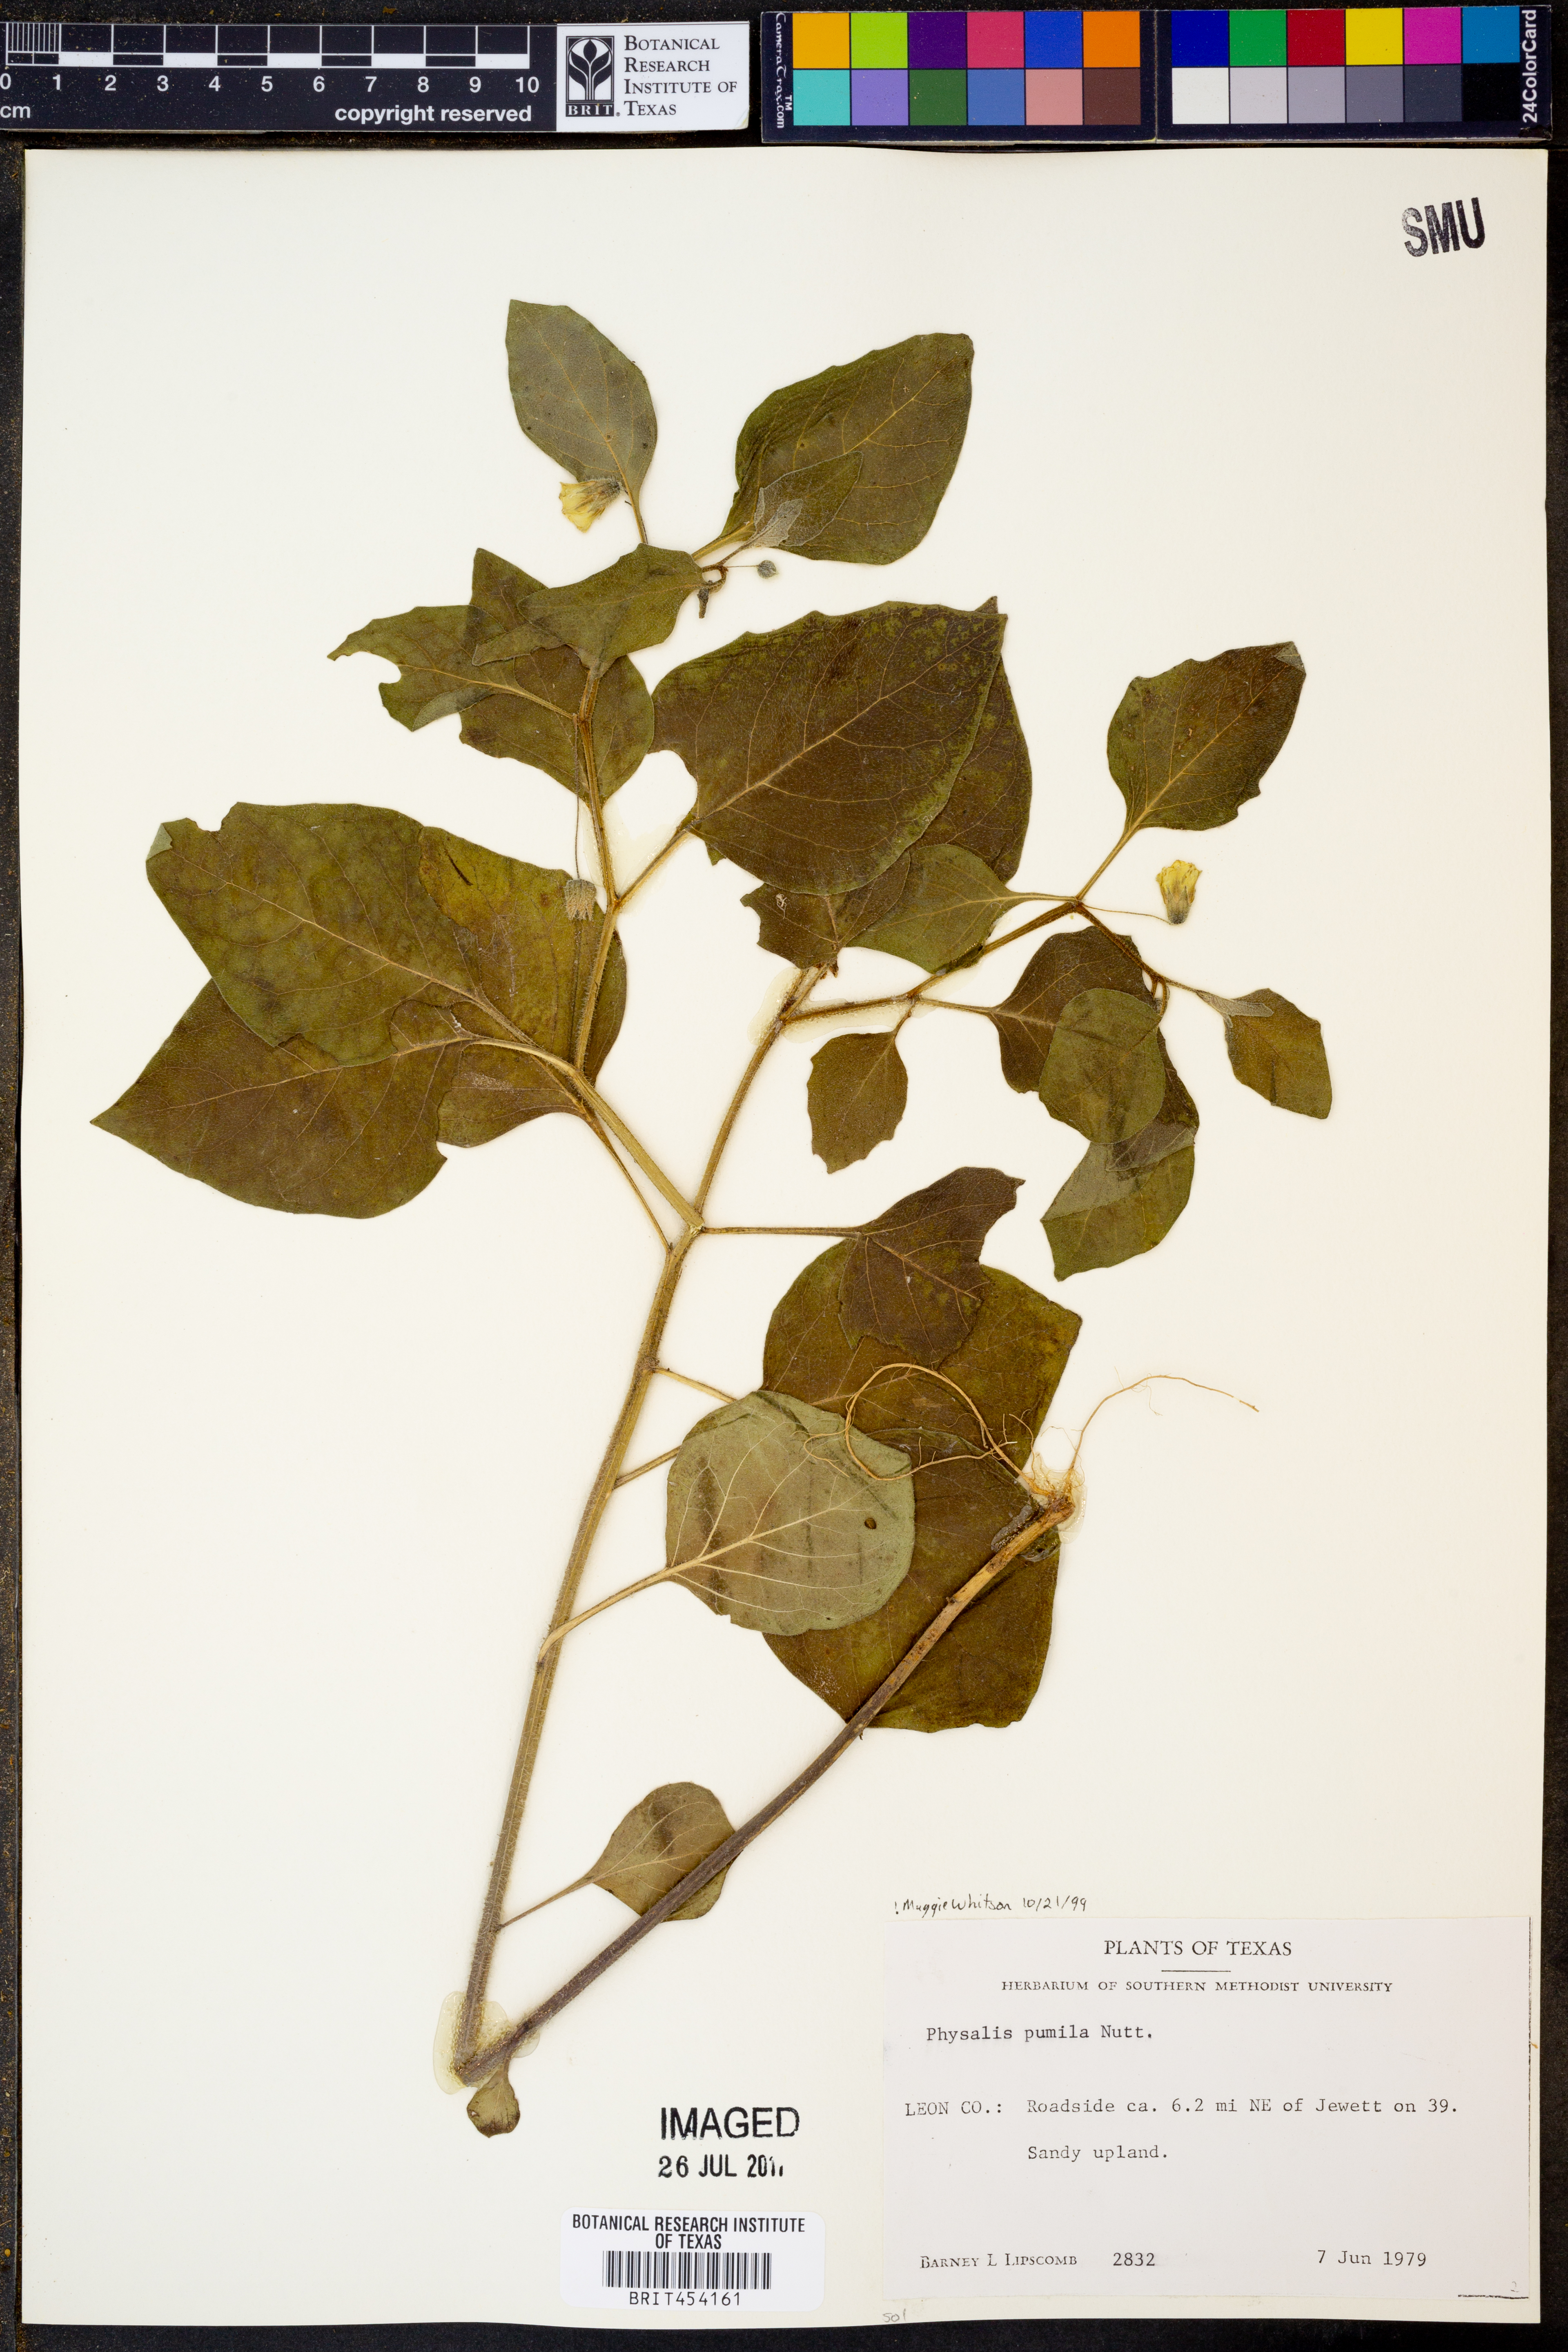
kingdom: Plantae
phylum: Tracheophyta
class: Magnoliopsida
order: Solanales
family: Solanaceae
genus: Physalis
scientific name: Physalis pumila
